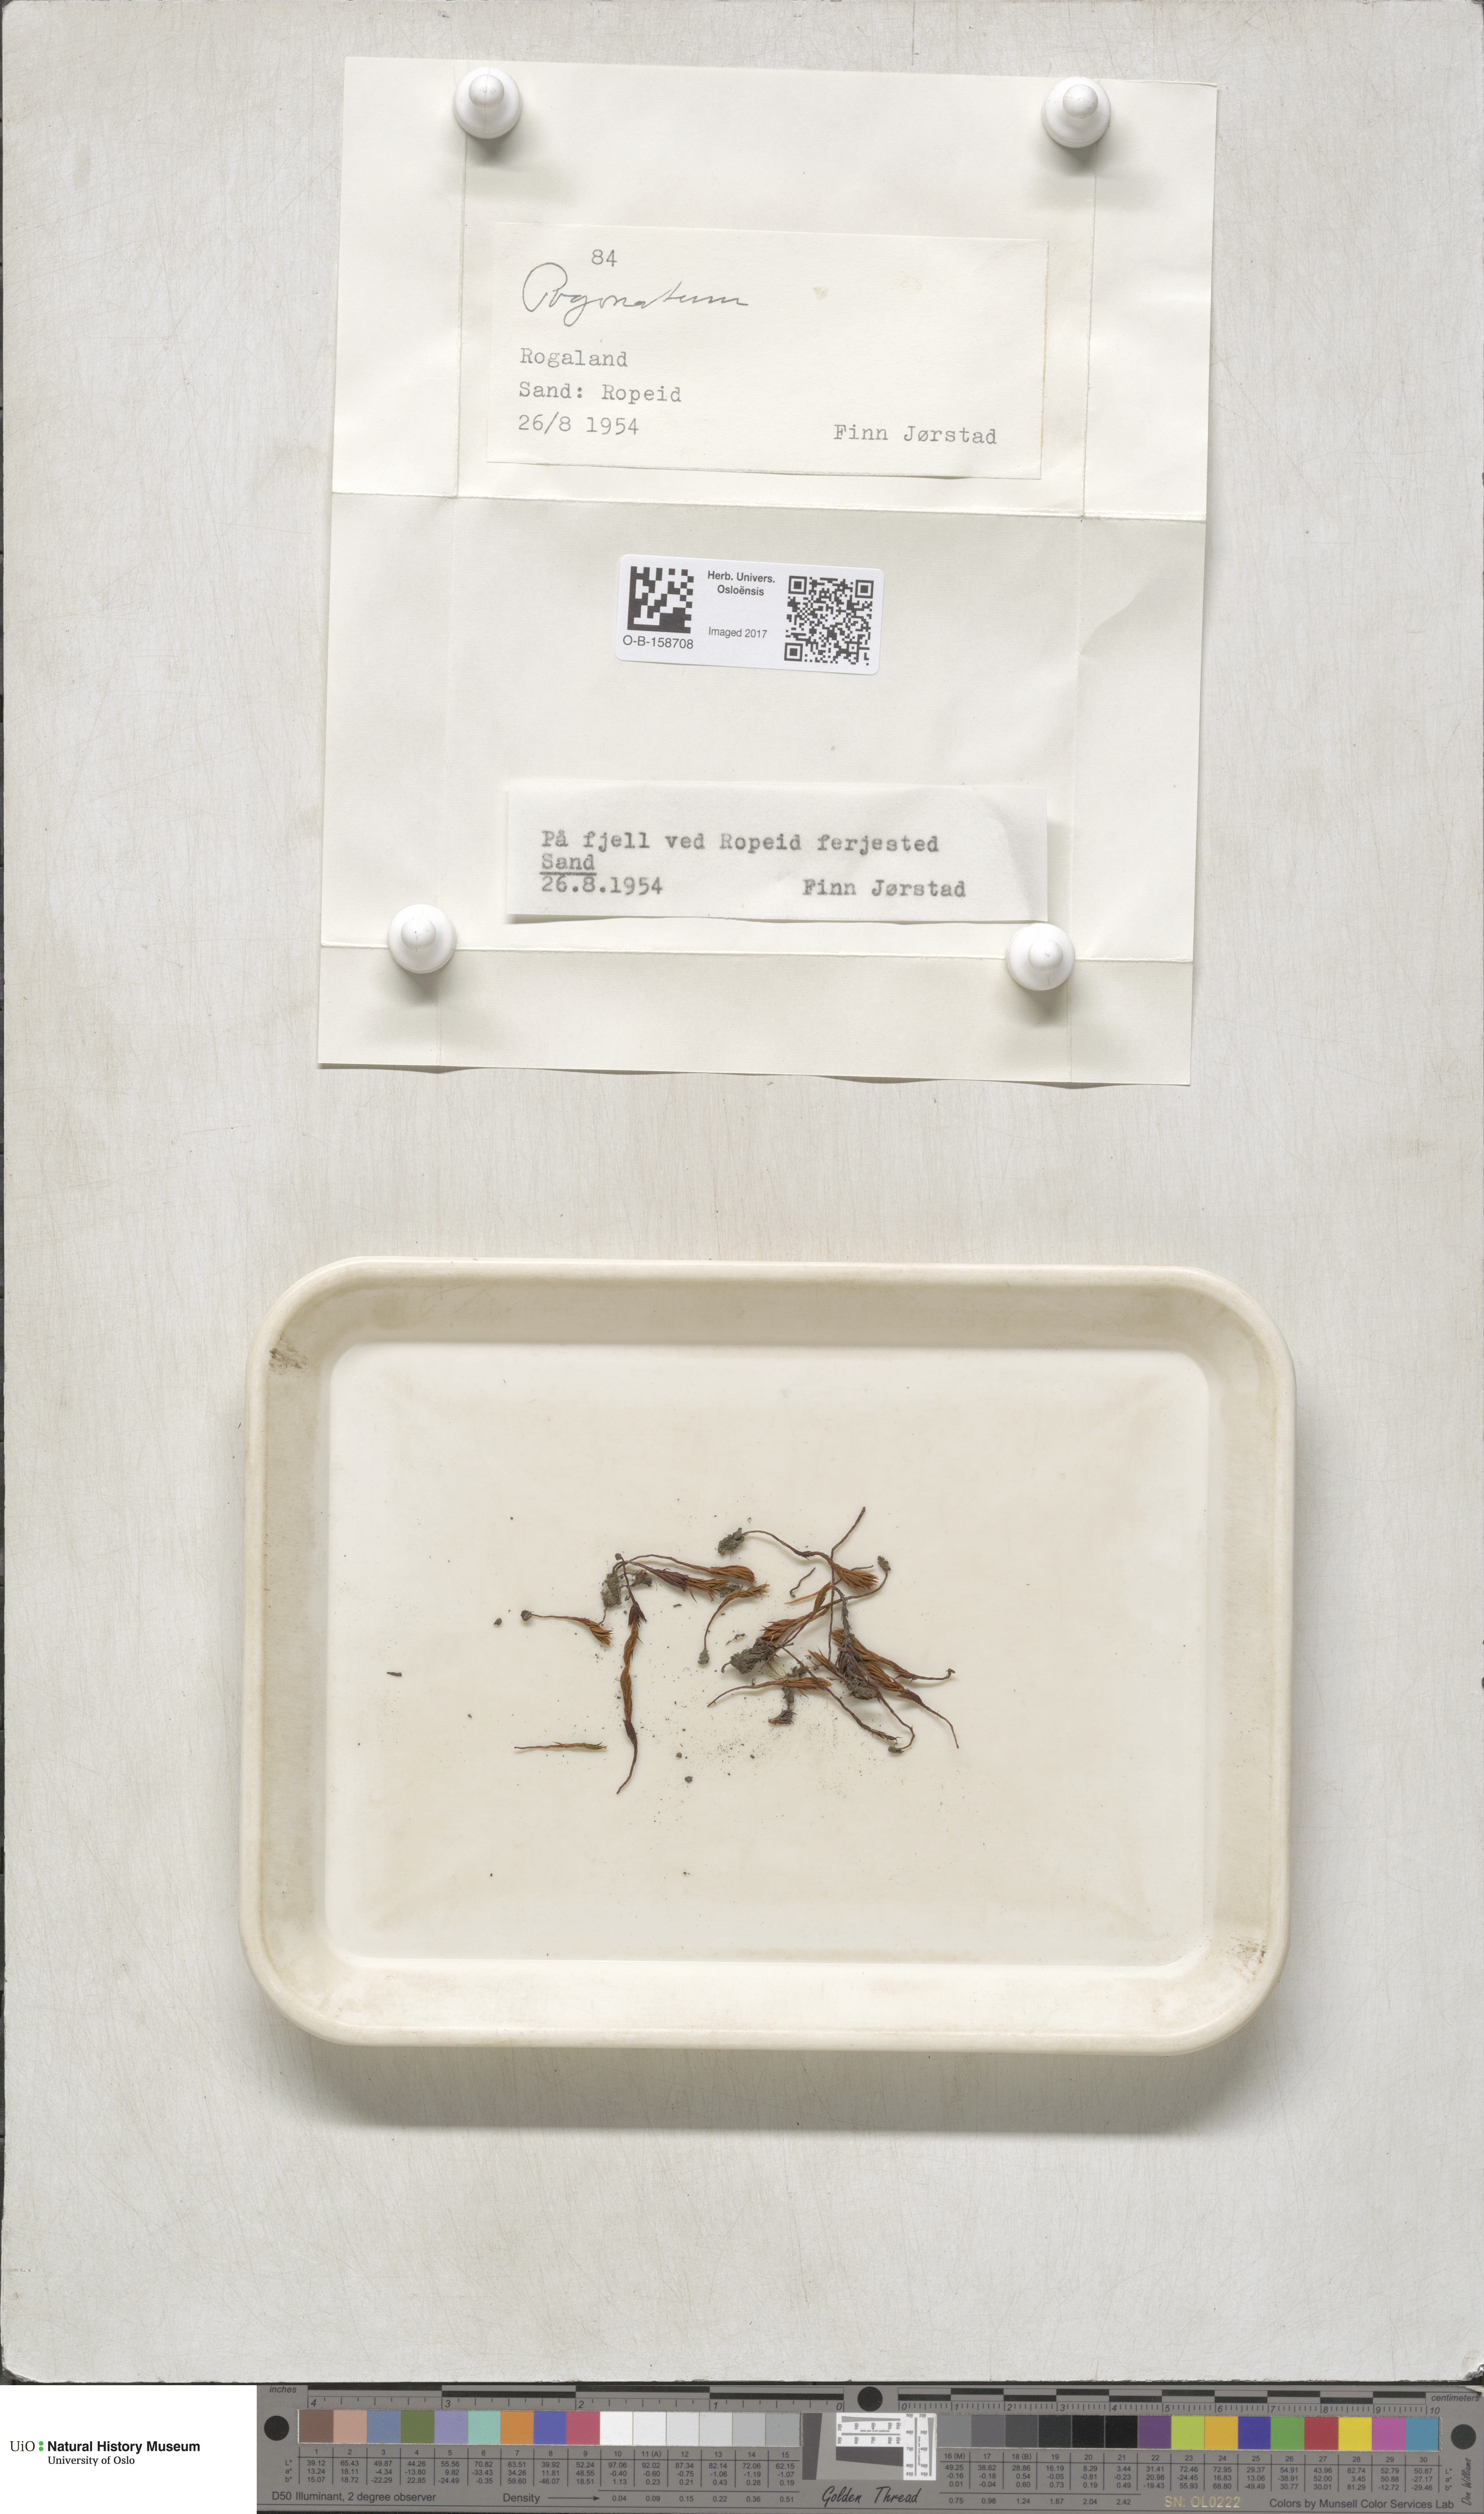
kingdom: Plantae
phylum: Bryophyta
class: Polytrichopsida
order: Polytrichales
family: Polytrichaceae
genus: Pogonatum
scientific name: Pogonatum
